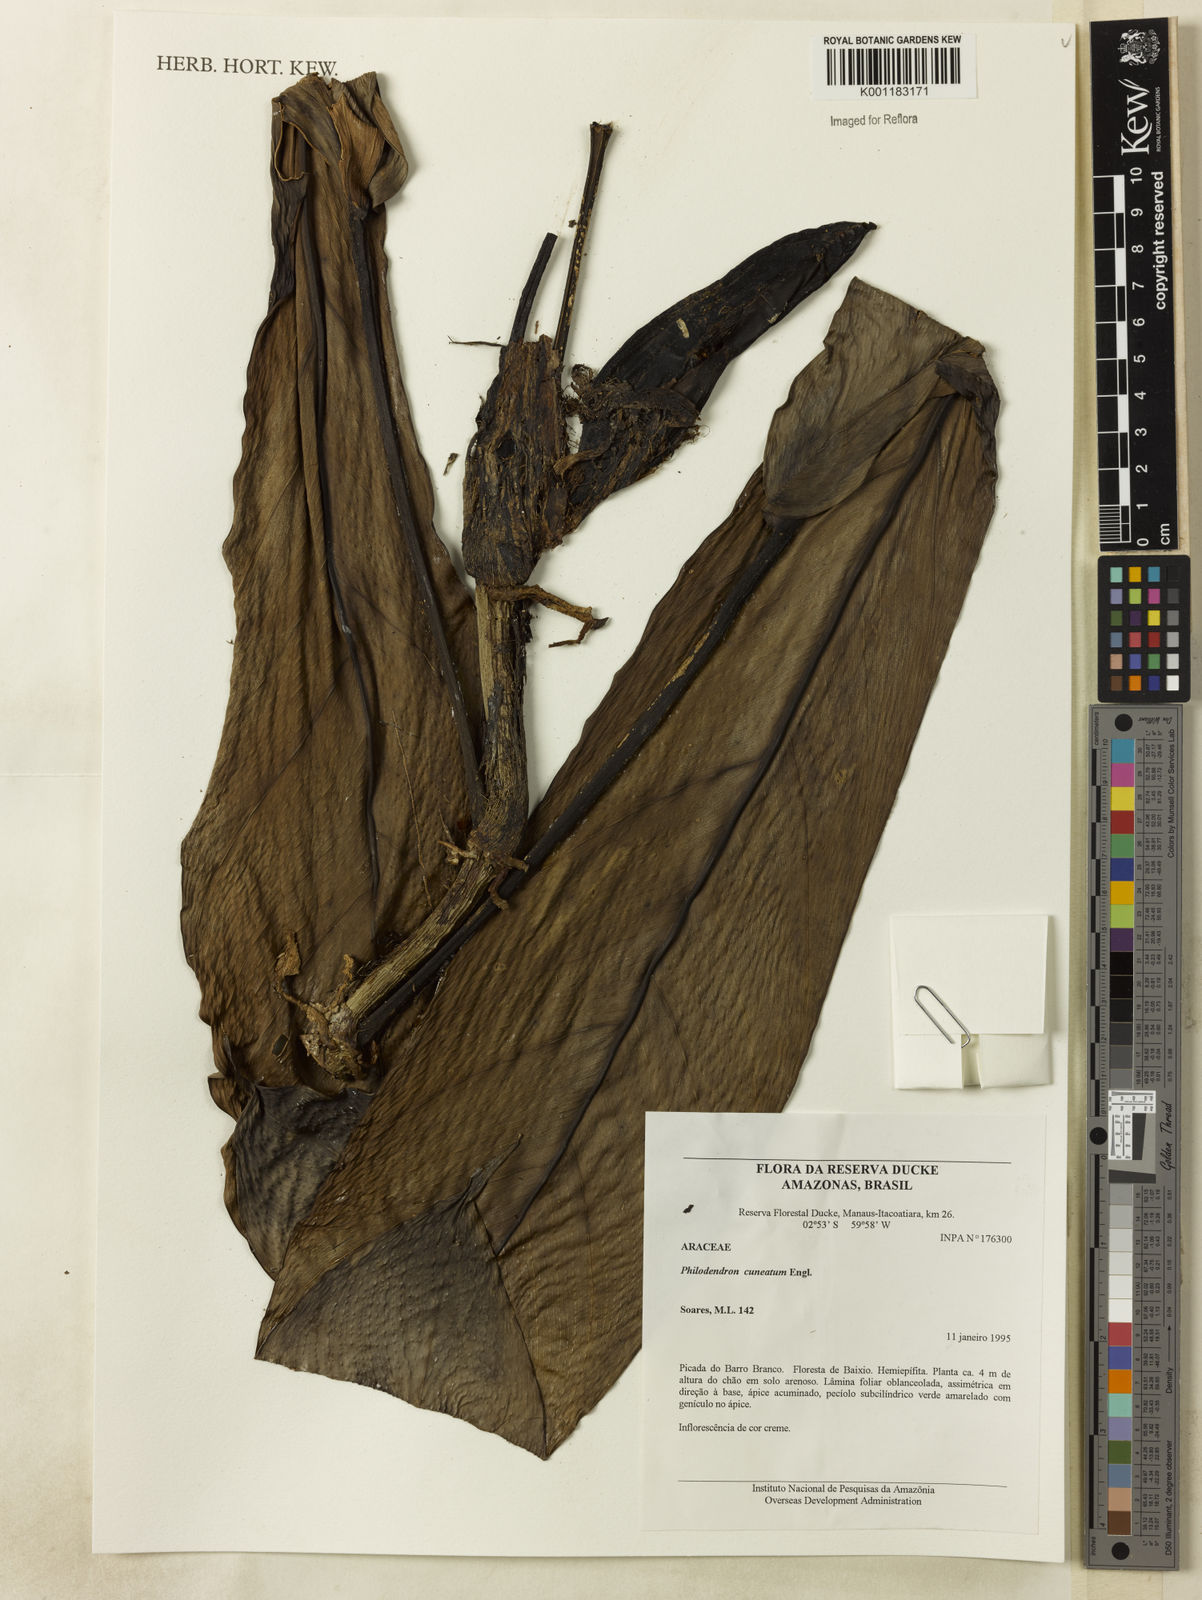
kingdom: Plantae
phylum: Tracheophyta
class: Liliopsida
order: Alismatales
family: Araceae
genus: Philodendron
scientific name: Philodendron cuneatum
